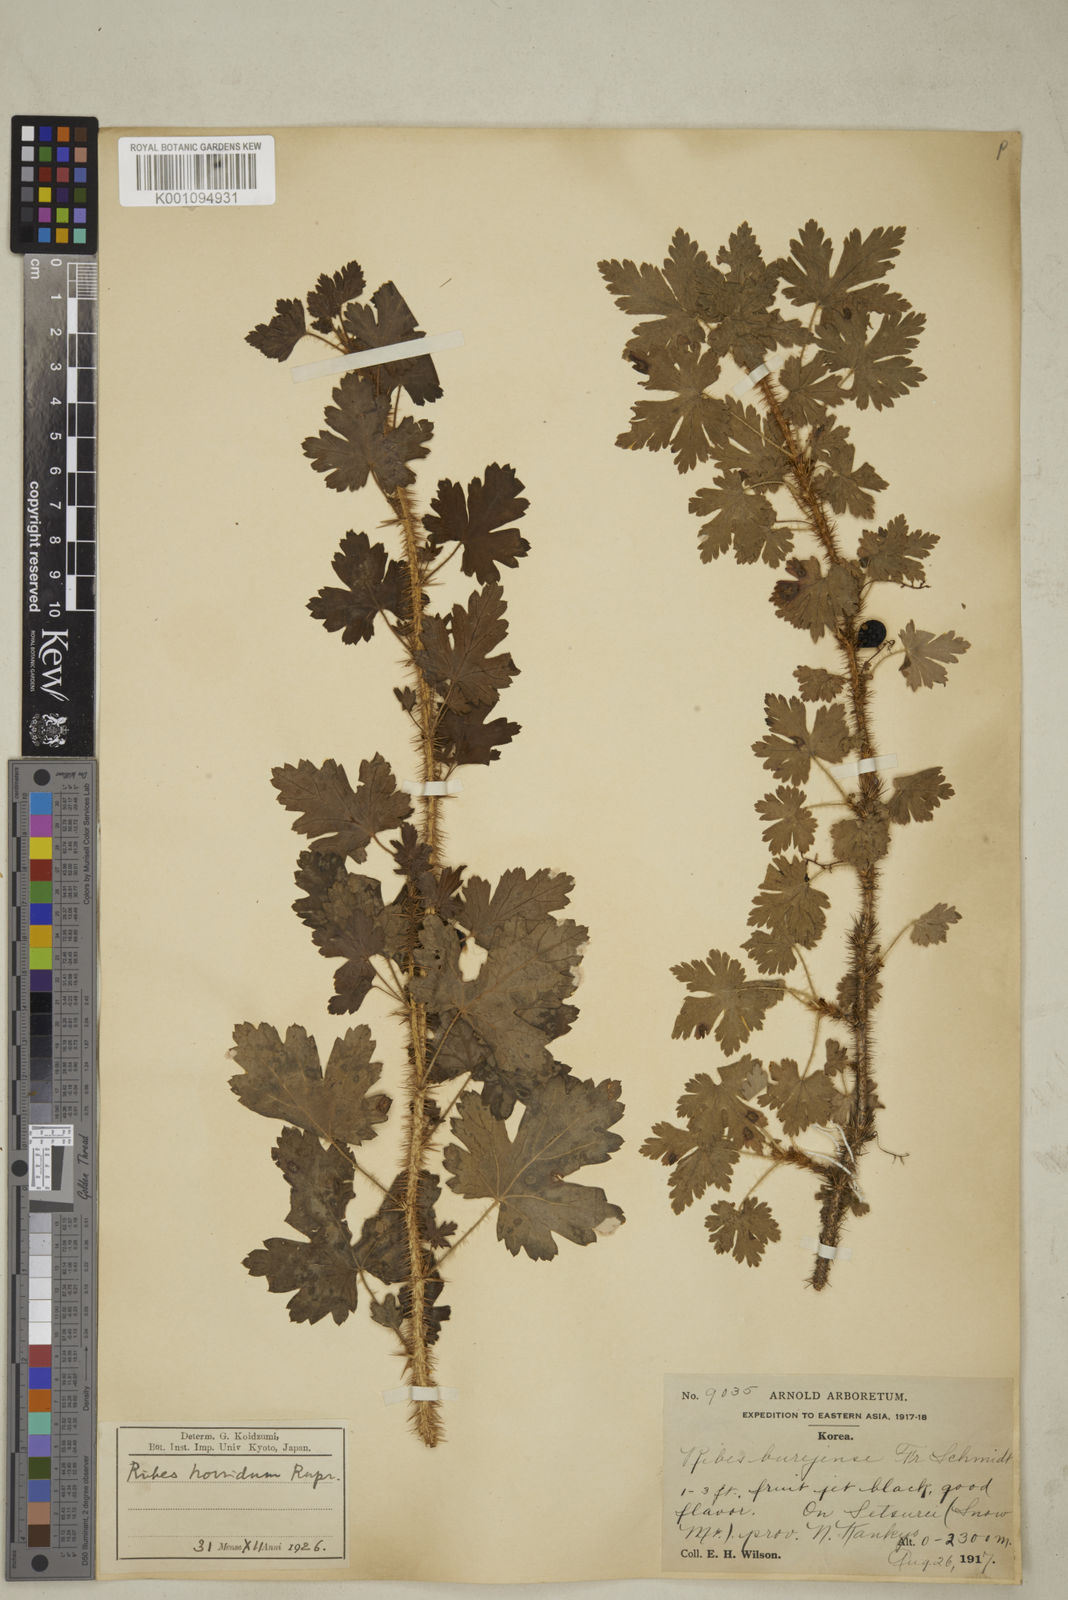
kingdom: Plantae
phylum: Tracheophyta
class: Magnoliopsida
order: Saxifragales
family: Grossulariaceae
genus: Ribes
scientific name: Ribes horridum
